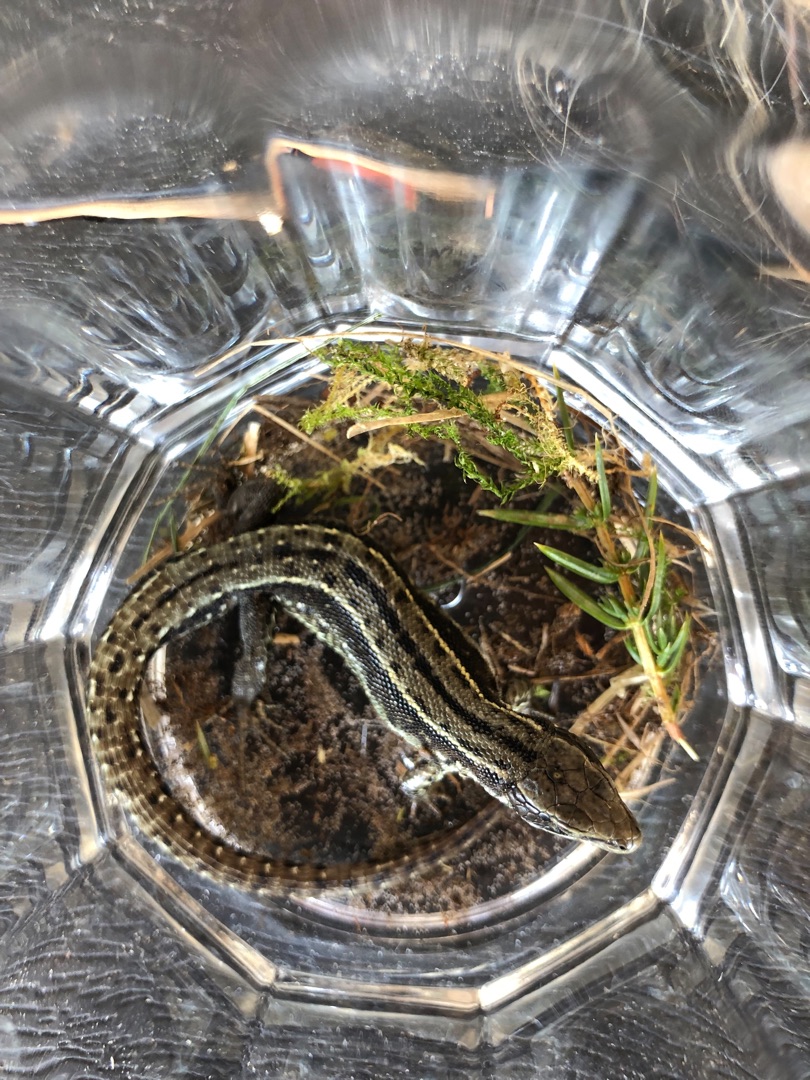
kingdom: Animalia
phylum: Chordata
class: Squamata
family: Lacertidae
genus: Zootoca
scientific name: Zootoca vivipara
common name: Skovfirben
